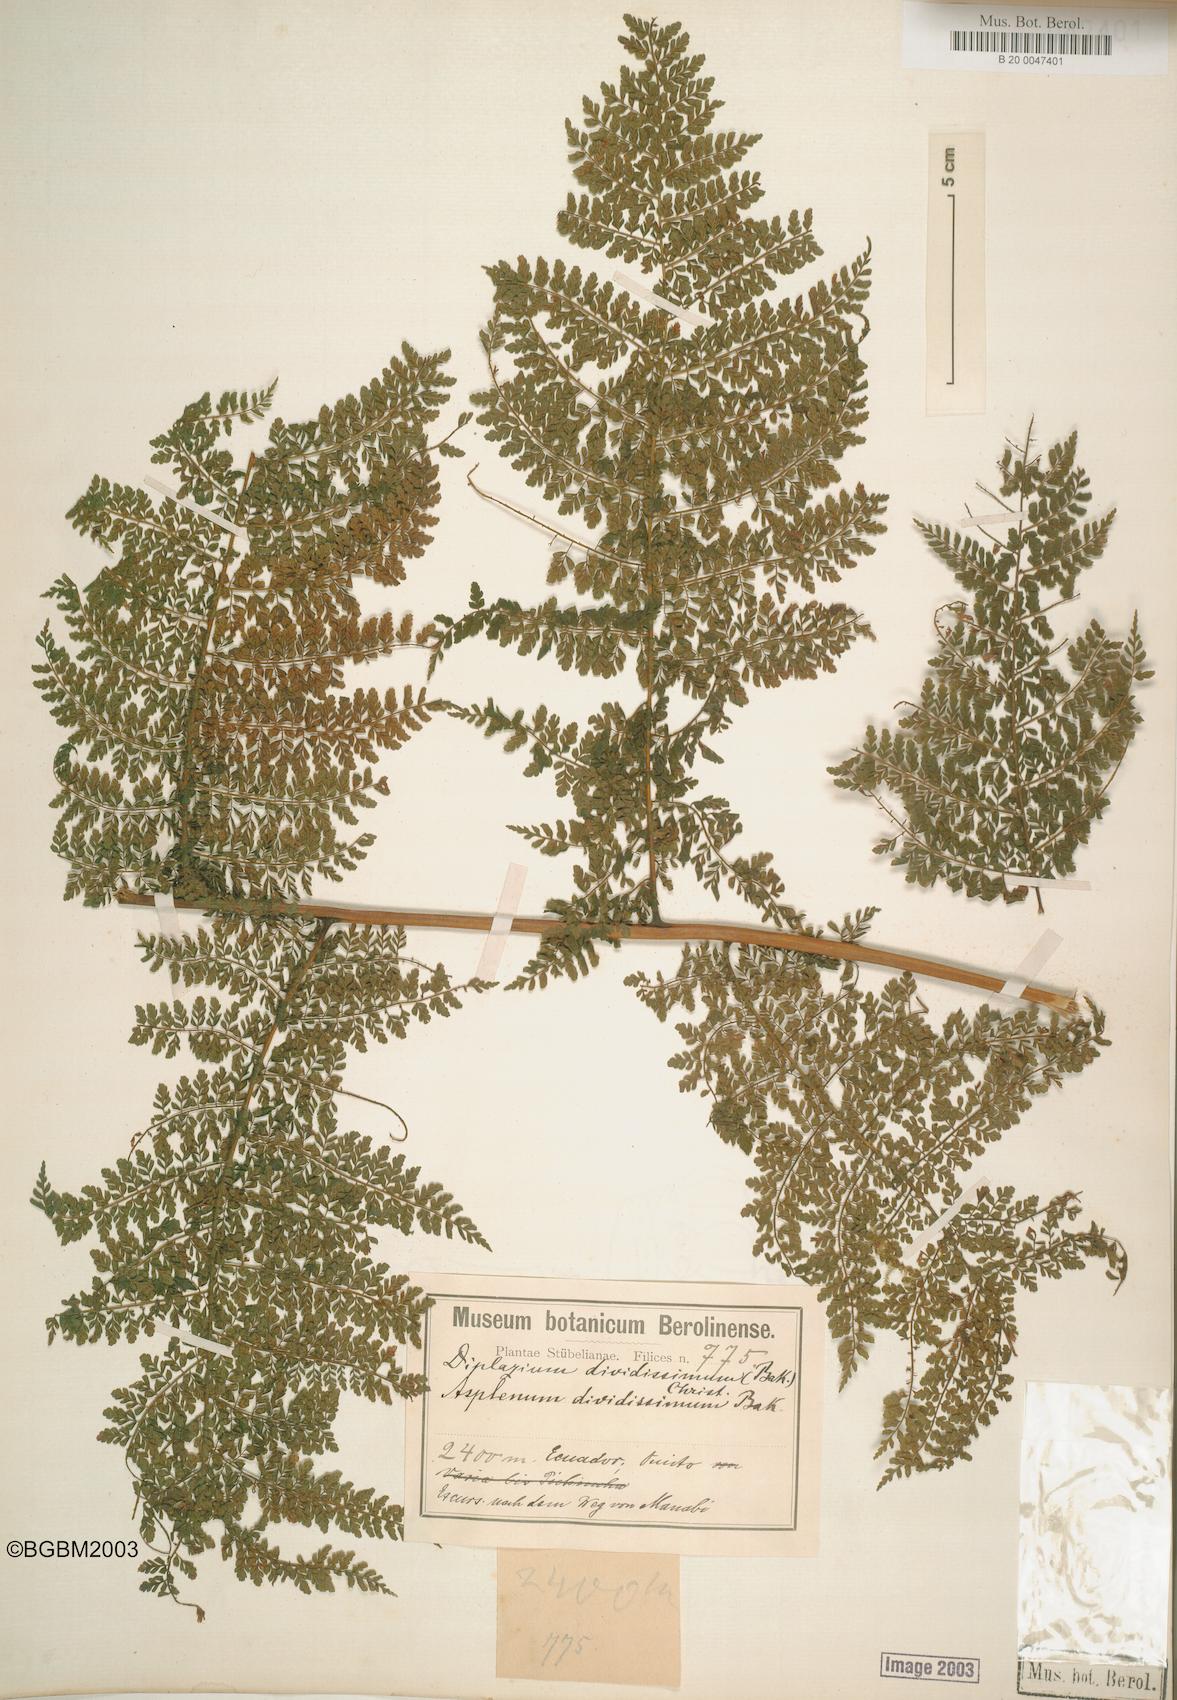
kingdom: Plantae
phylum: Tracheophyta
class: Polypodiopsida
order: Polypodiales
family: Athyriaceae
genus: Diplazium
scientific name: Diplazium divisissimum
